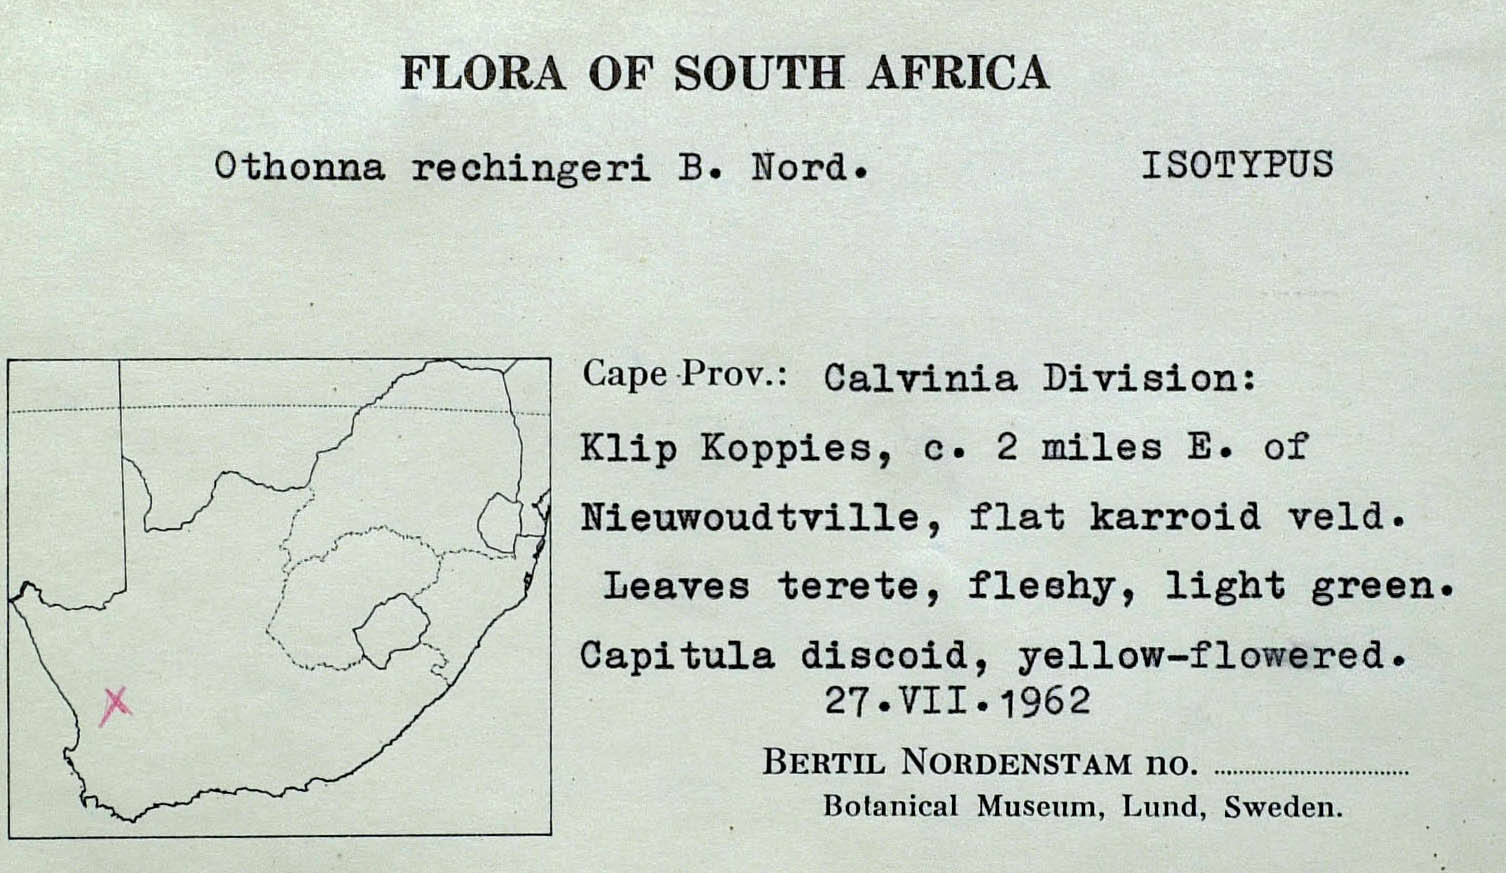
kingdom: Plantae
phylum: Tracheophyta
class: Magnoliopsida
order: Asterales
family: Asteraceae
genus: Crassothonna
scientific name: Crassothonna rechingeri
